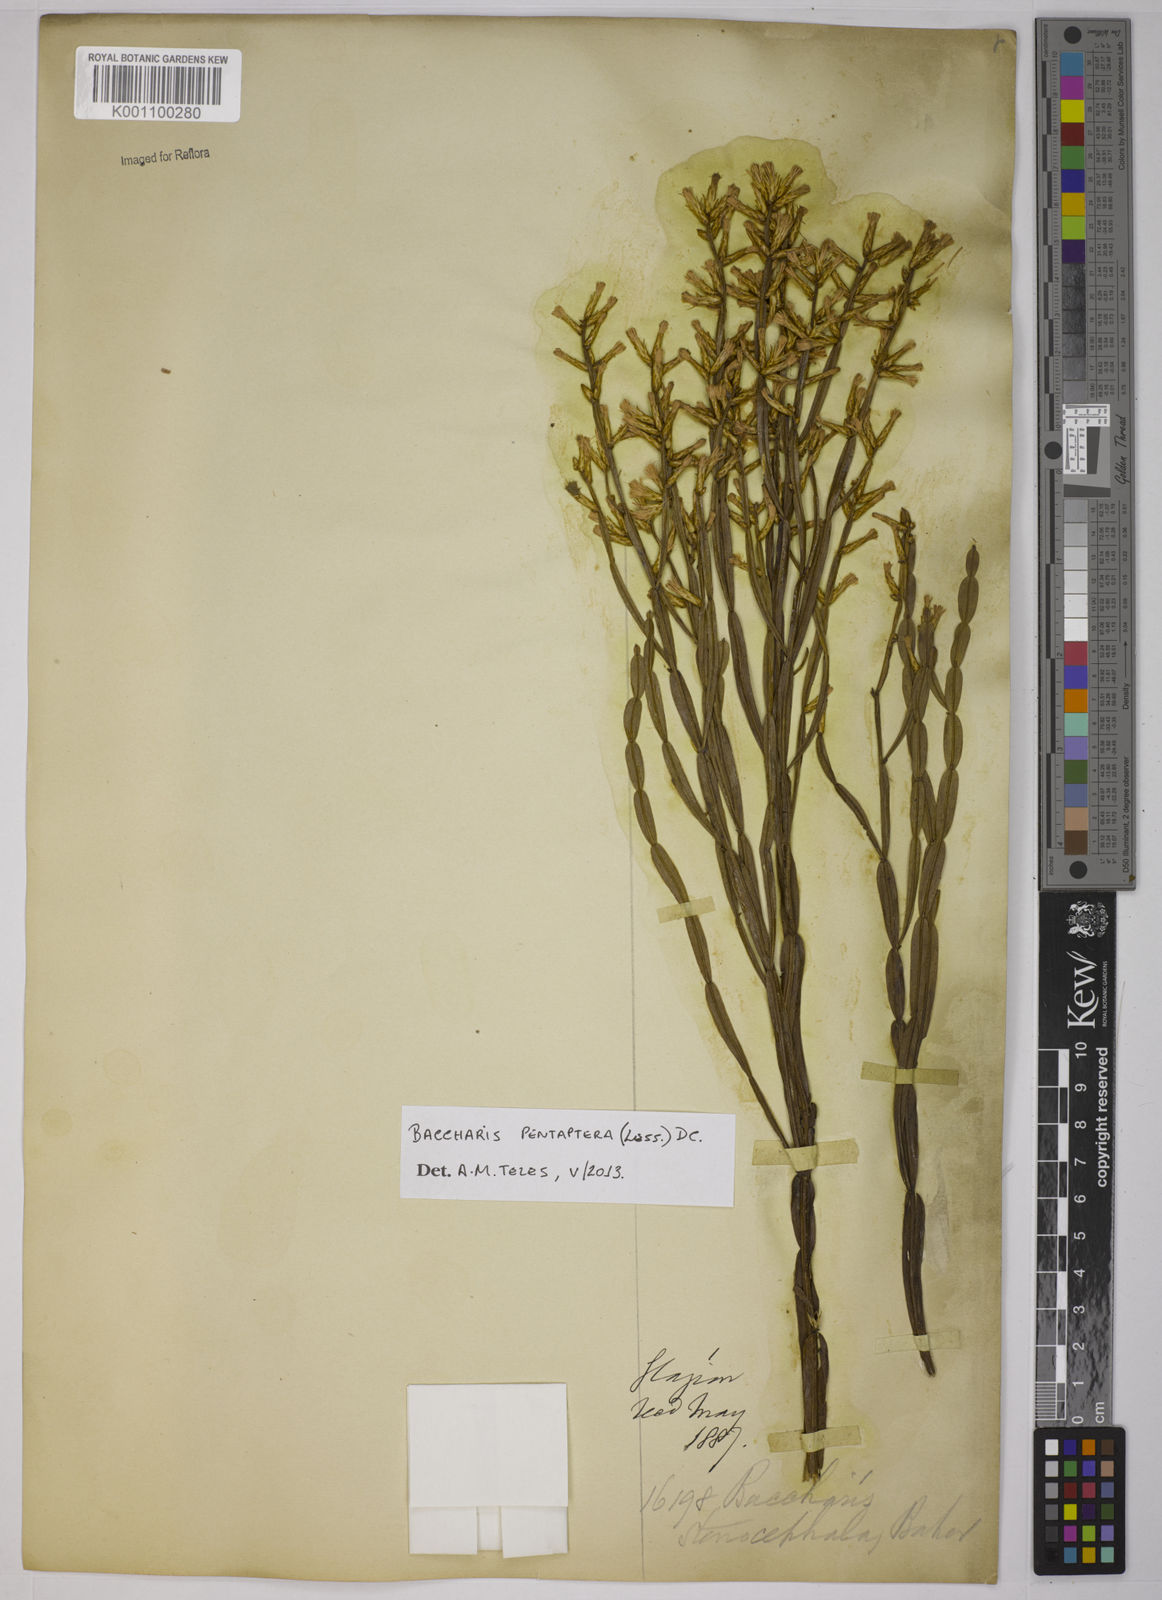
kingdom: Plantae
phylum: Tracheophyta
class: Magnoliopsida
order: Asterales
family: Asteraceae
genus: Baccharis
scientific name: Baccharis pentaptera
